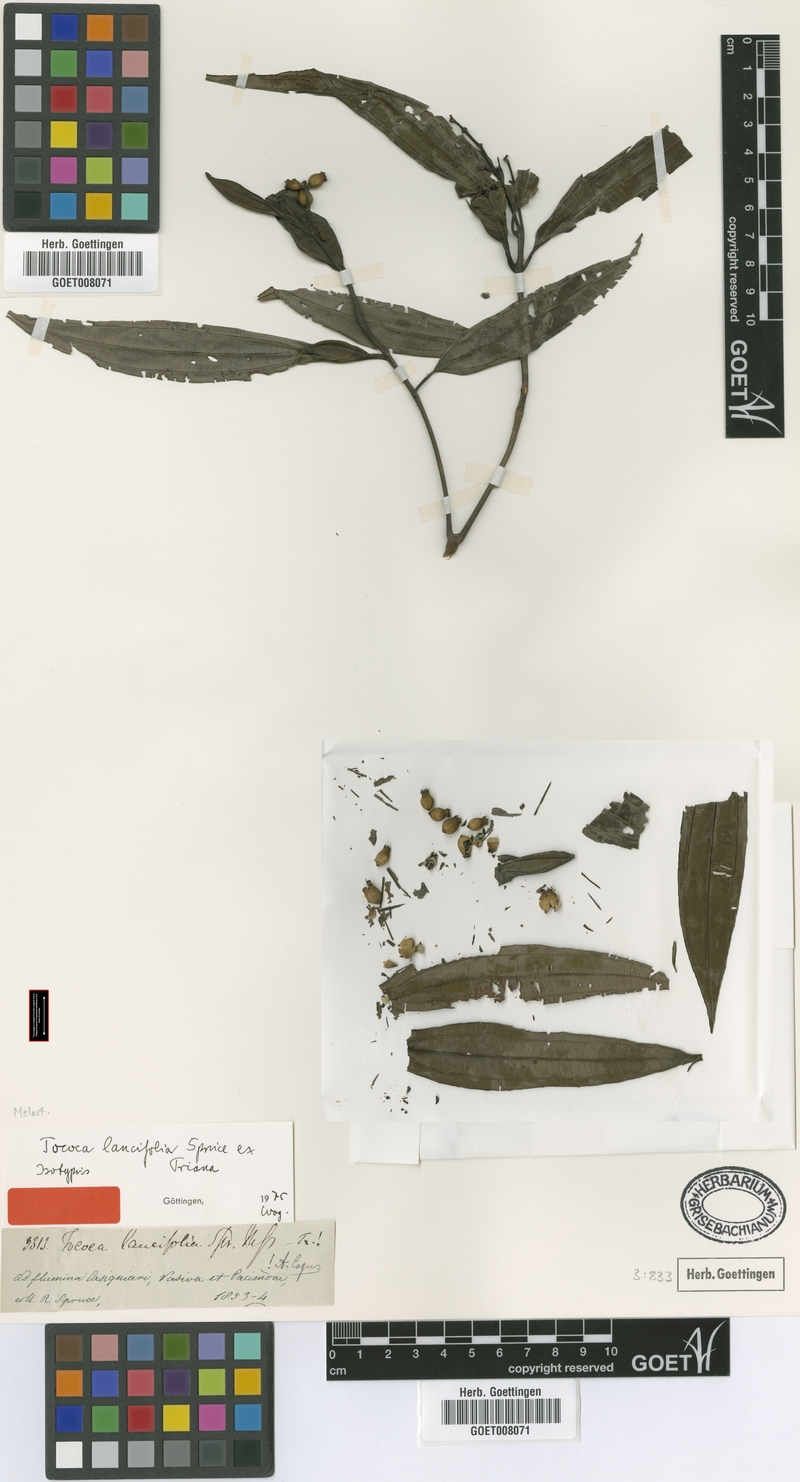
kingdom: Plantae
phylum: Tracheophyta
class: Magnoliopsida
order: Myrtales
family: Melastomataceae
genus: Miconia
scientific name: Miconia lancifolia
